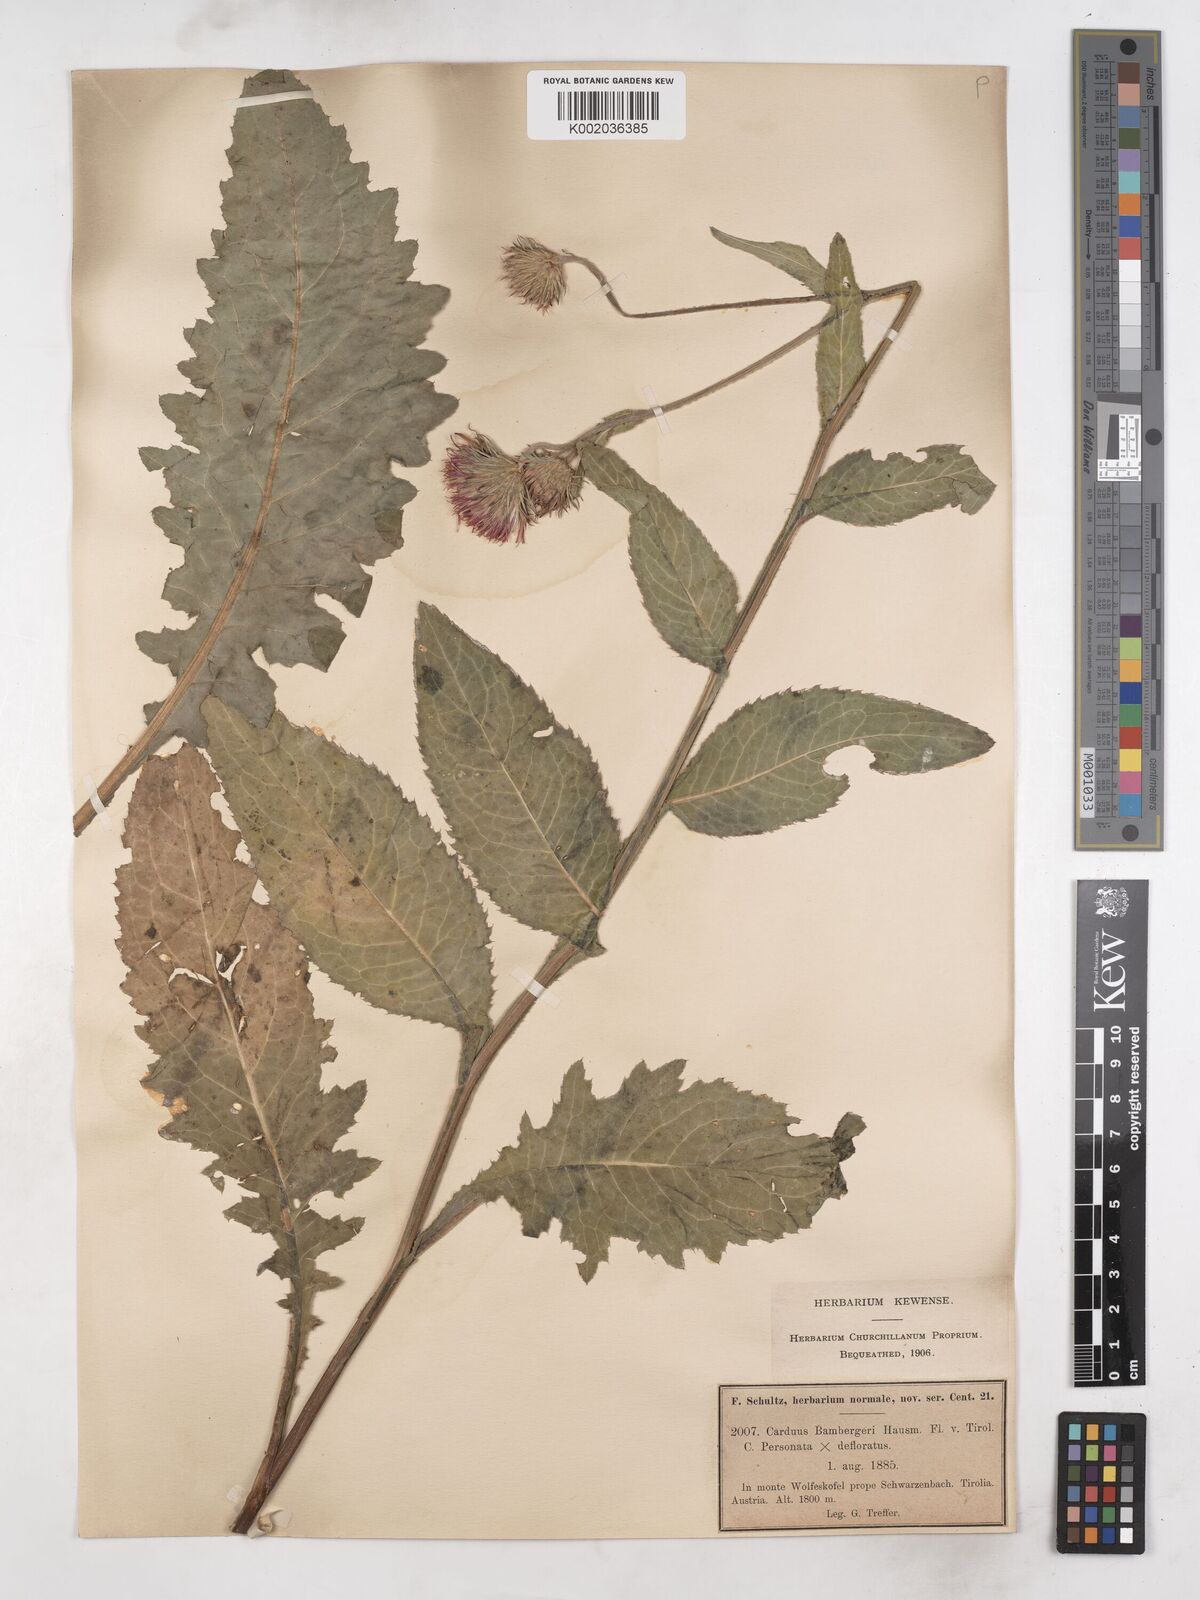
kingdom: Plantae
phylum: Tracheophyta
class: Magnoliopsida
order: Asterales
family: Asteraceae
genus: Carduus
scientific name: Carduus personata
